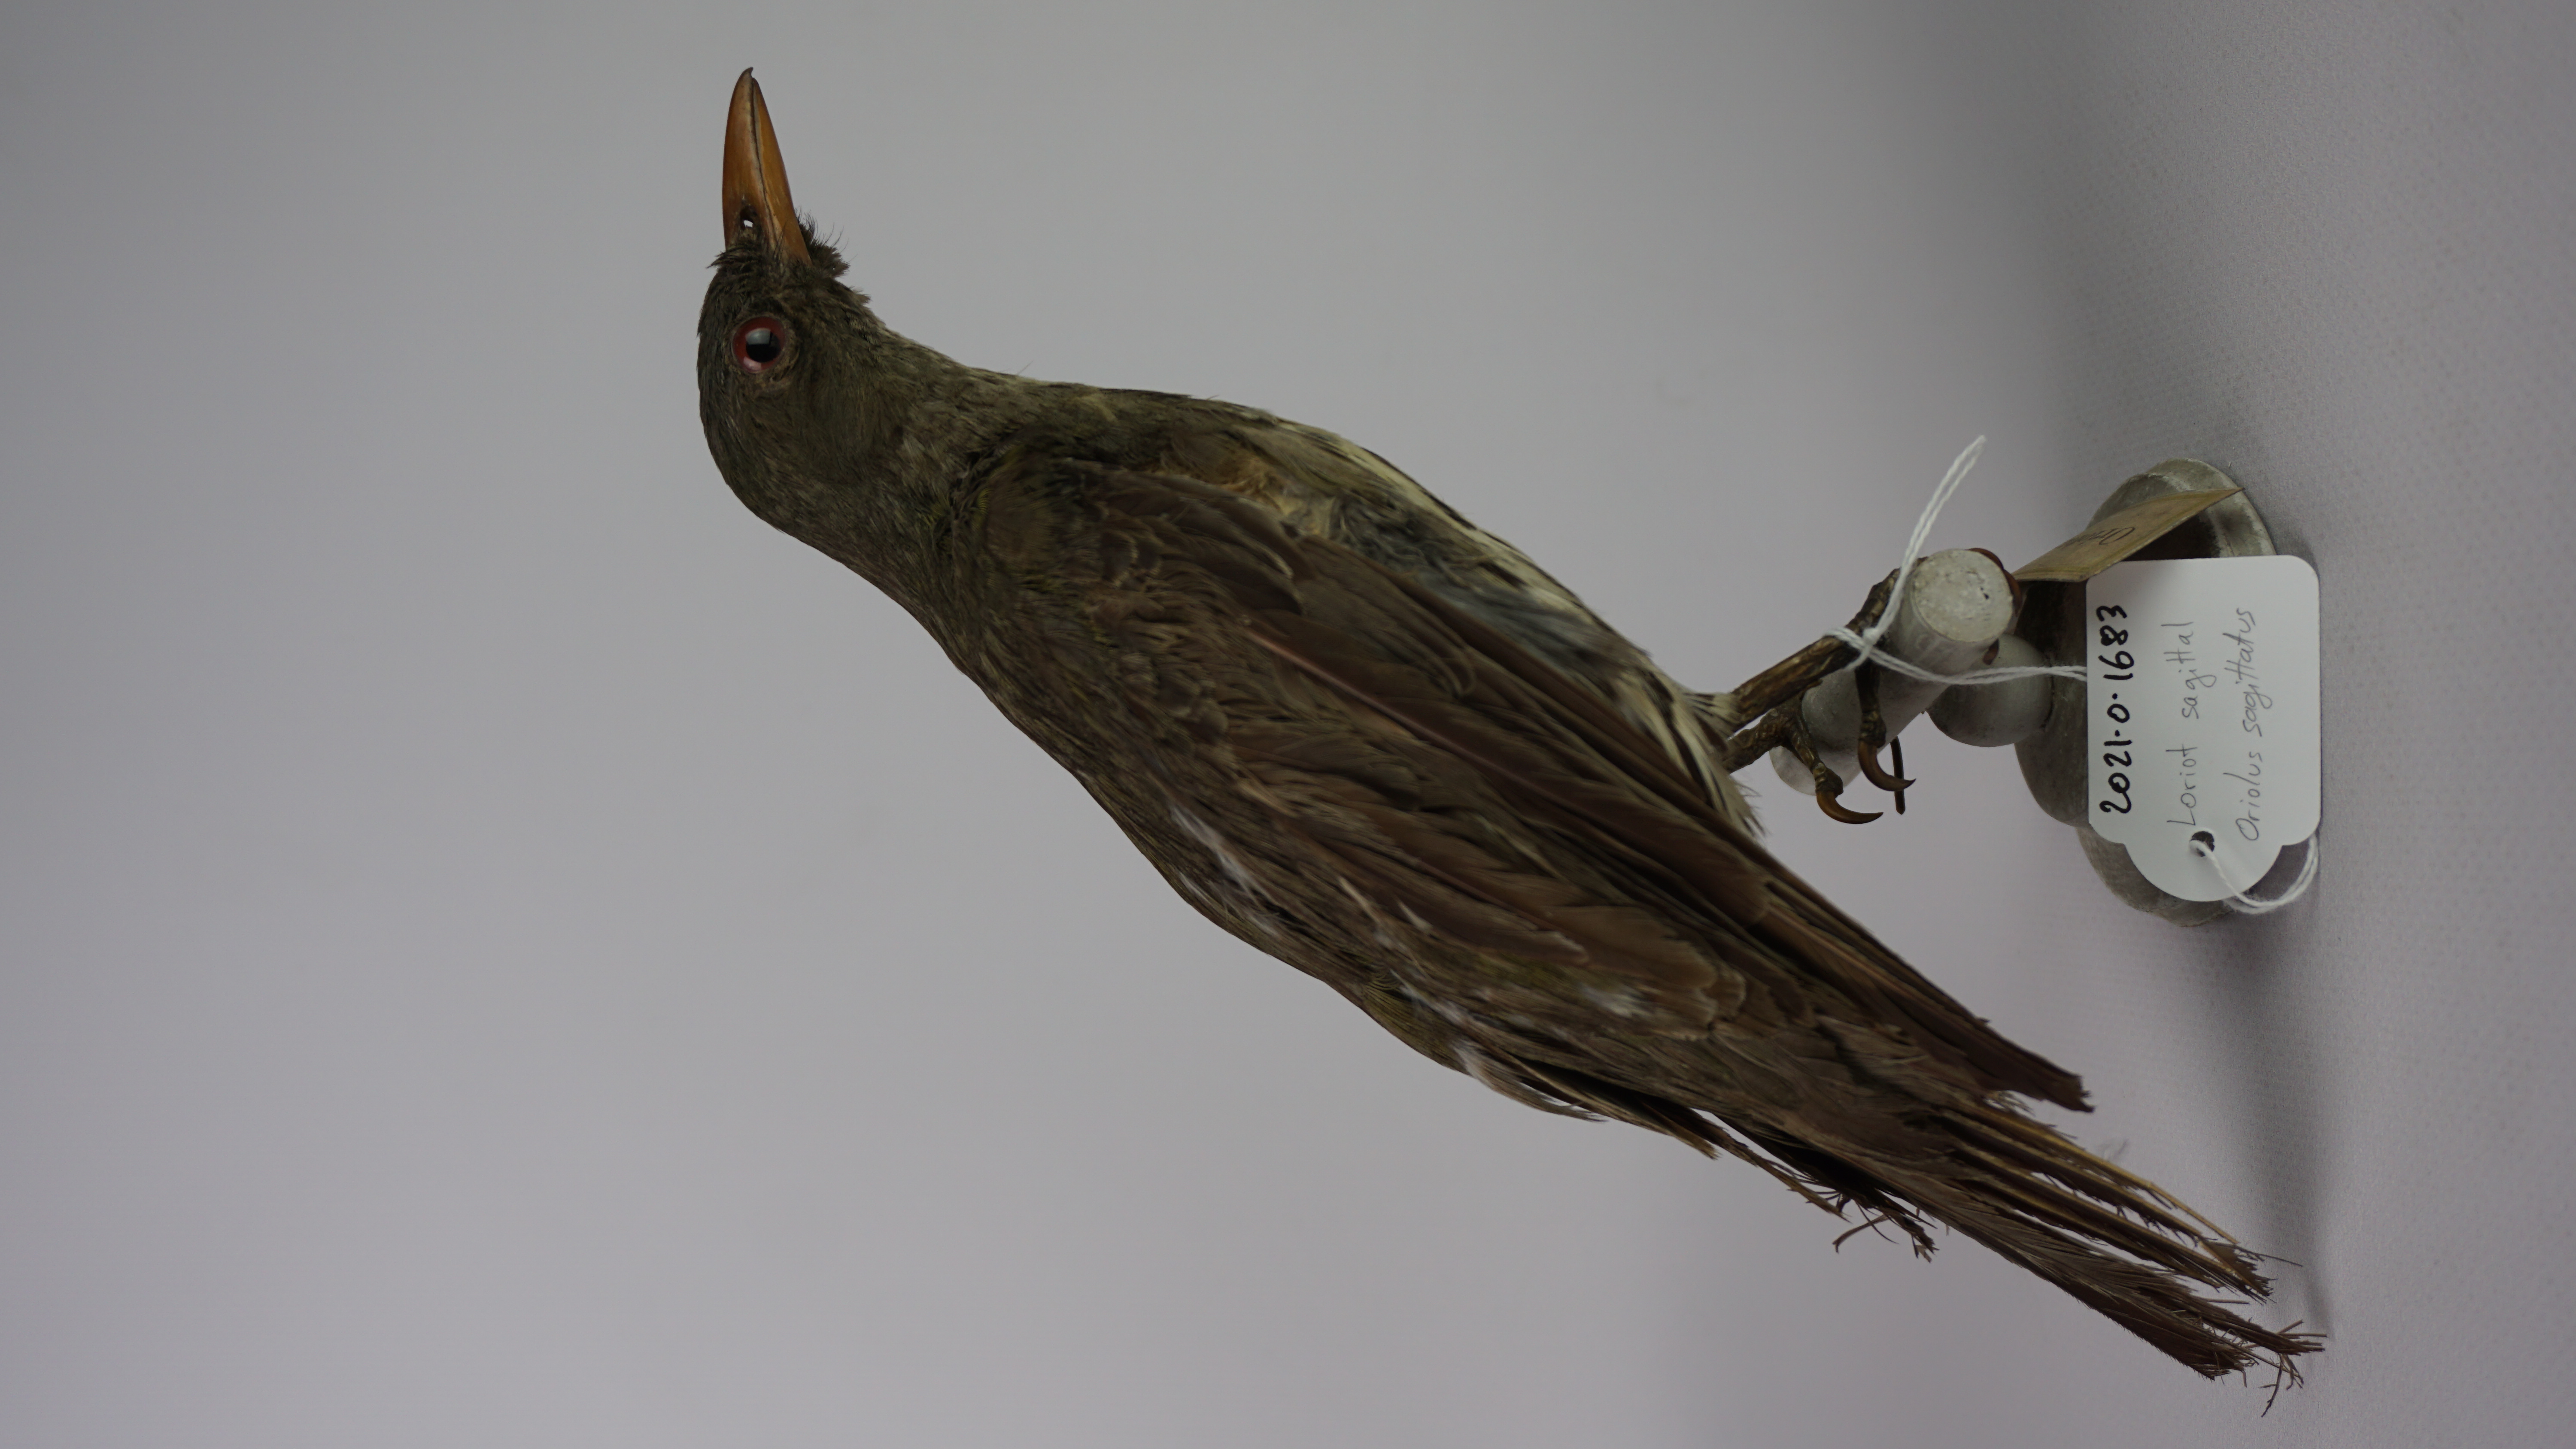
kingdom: Animalia
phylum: Chordata
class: Aves
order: Passeriformes
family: Oriolidae
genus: Oriolus
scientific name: Oriolus sagittatus
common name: Olive-backed oriole
